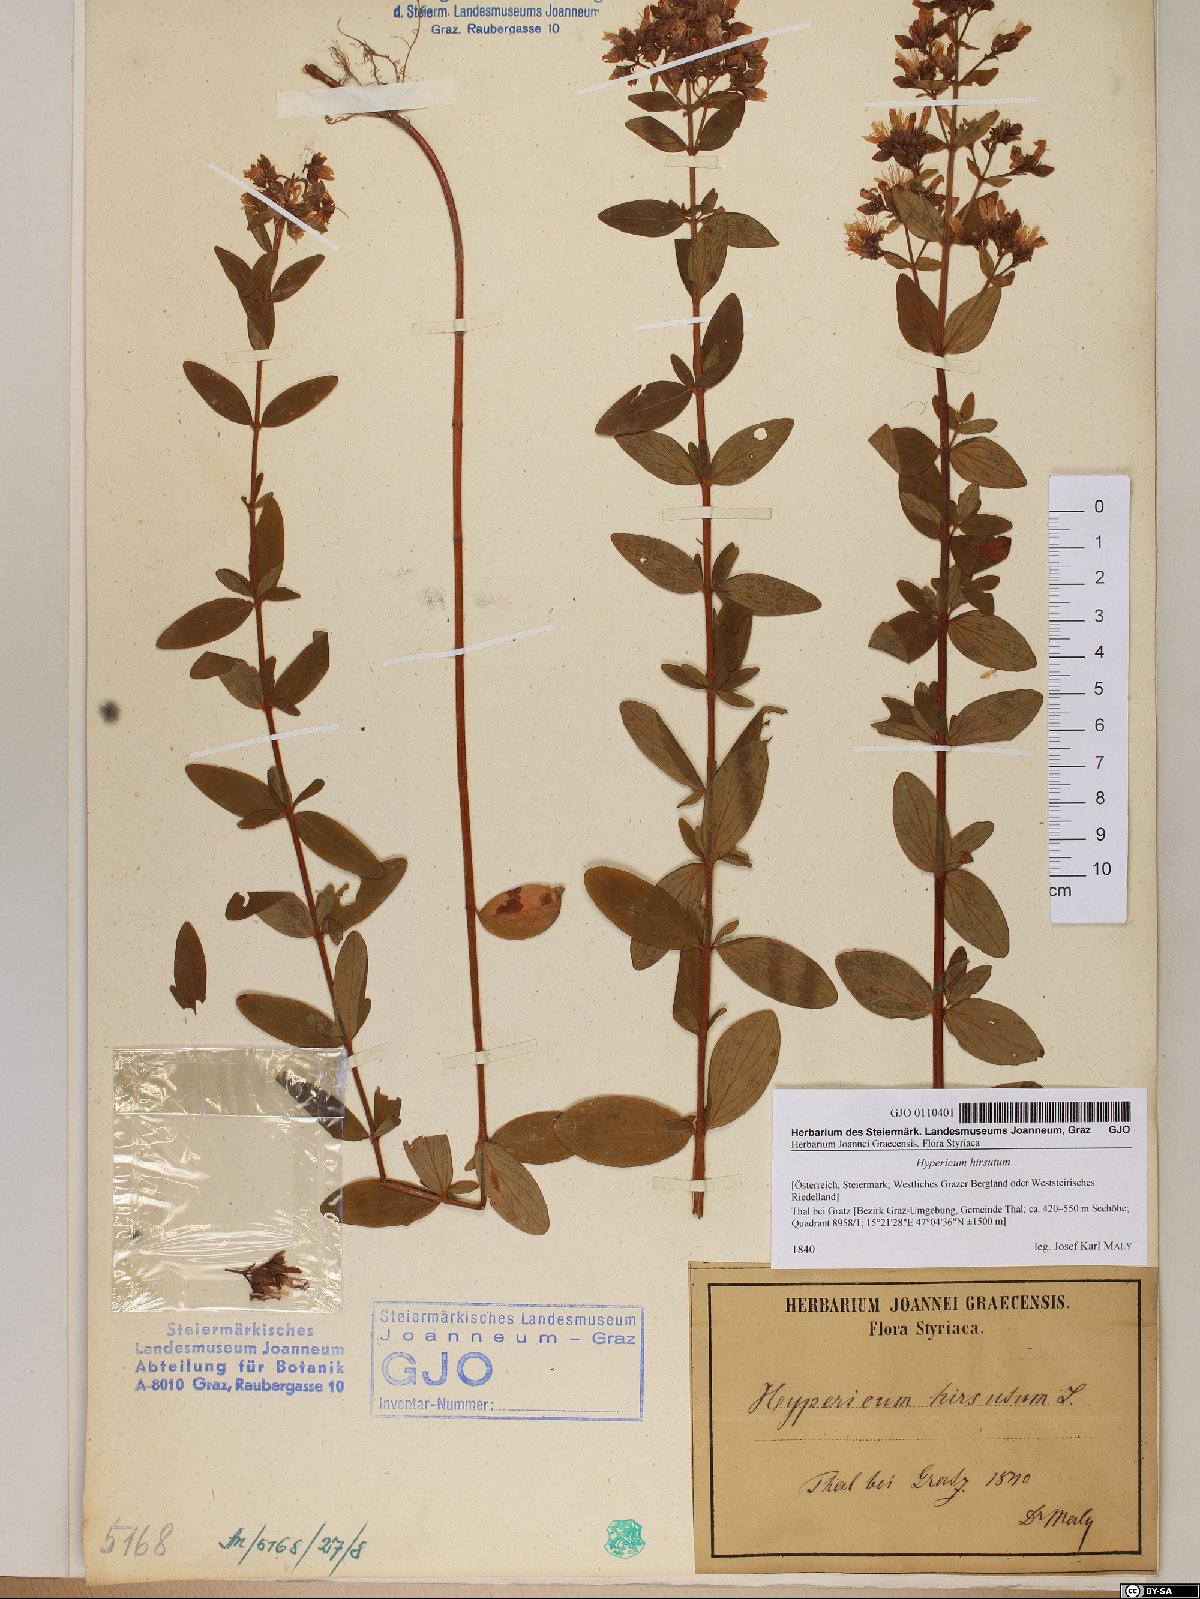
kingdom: Plantae
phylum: Tracheophyta
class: Magnoliopsida
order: Malpighiales
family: Hypericaceae
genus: Hypericum
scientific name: Hypericum hirsutum
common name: Hairy st. john's-wort
